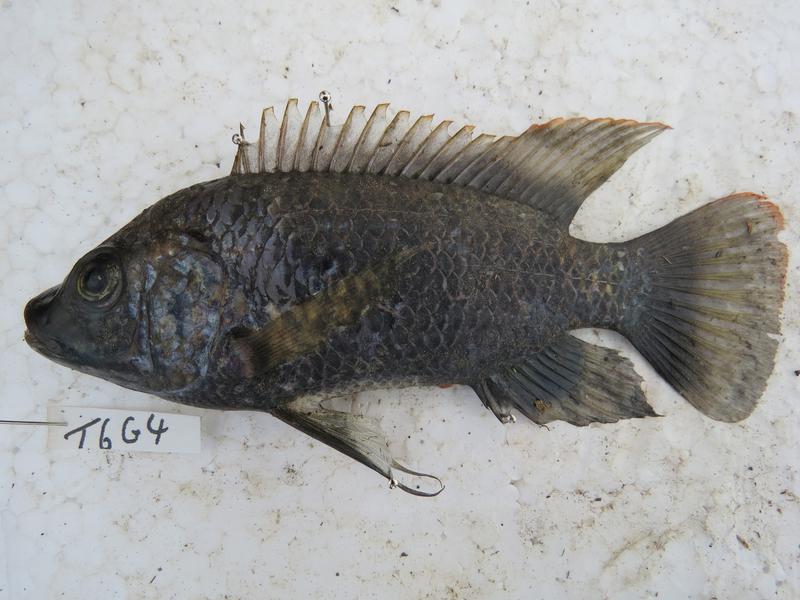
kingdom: Animalia
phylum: Chordata
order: Perciformes
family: Cichlidae
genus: Oreochromis
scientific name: Oreochromis urolepis
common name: Wami tilapia
